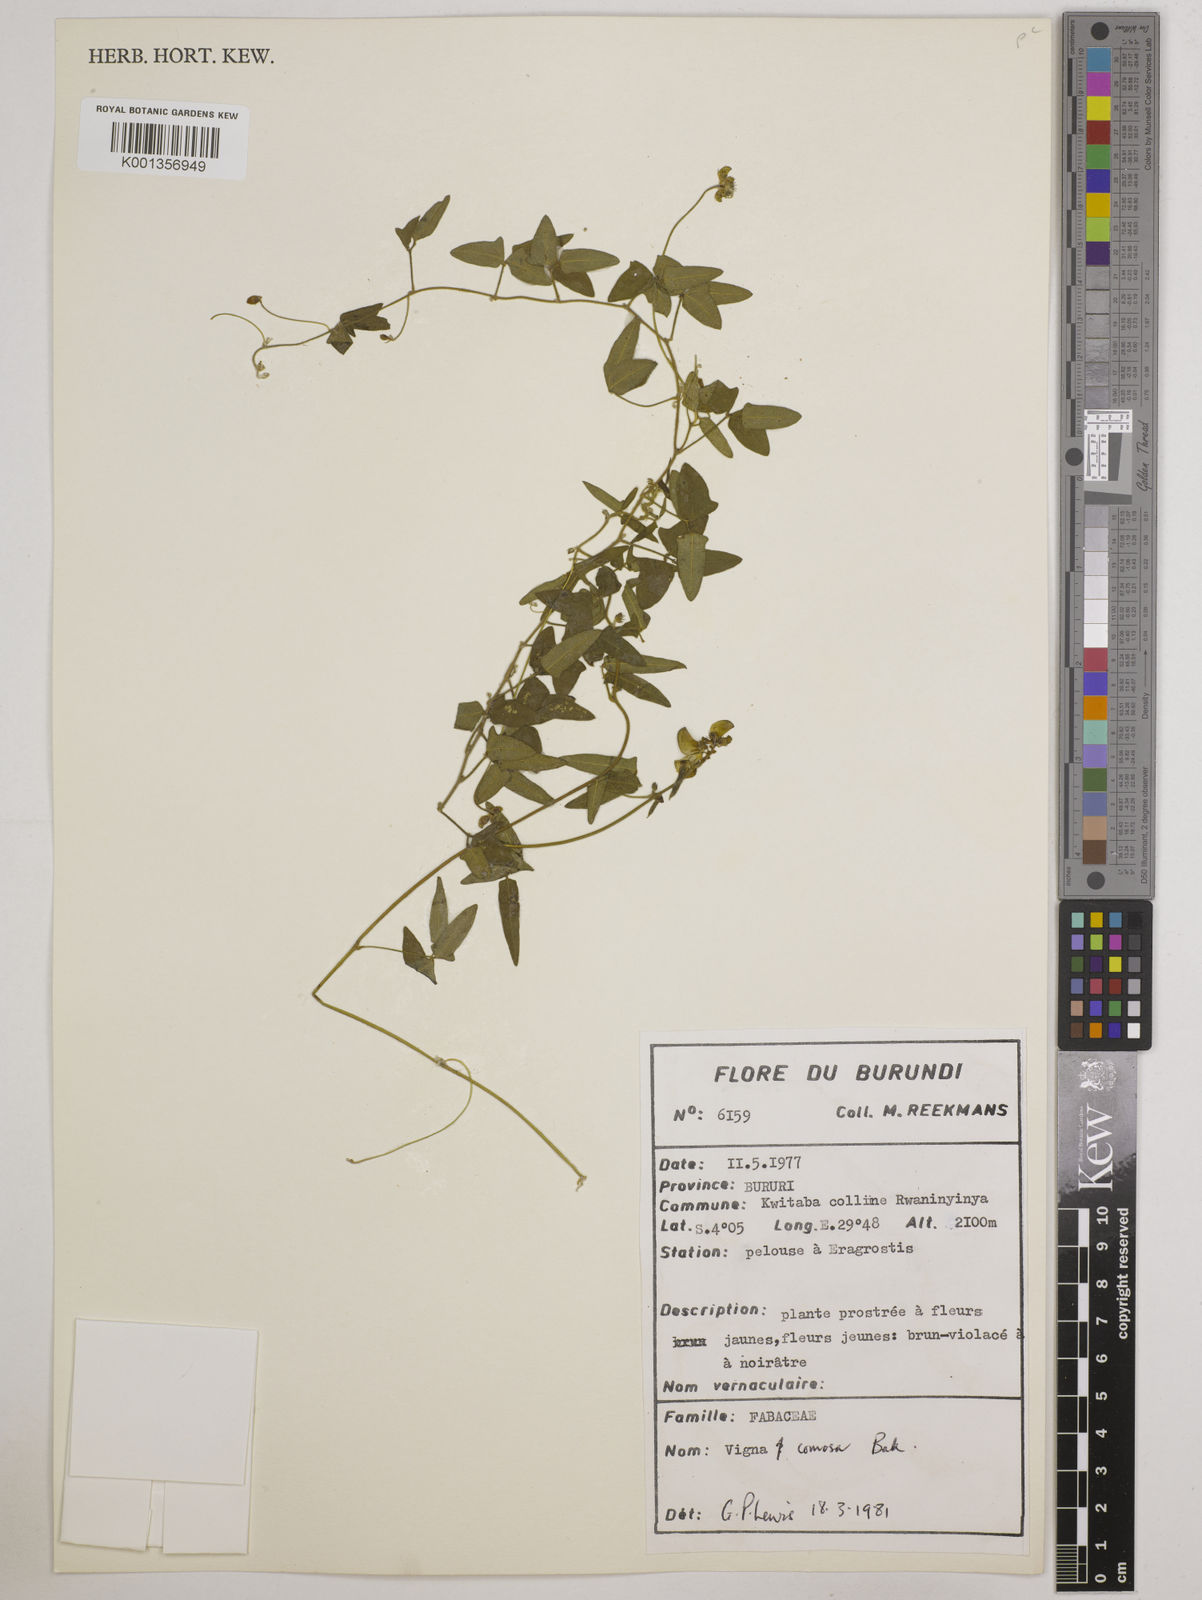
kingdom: Plantae
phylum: Tracheophyta
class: Magnoliopsida
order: Fabales
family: Fabaceae
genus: Vigna
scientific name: Vigna comosa
